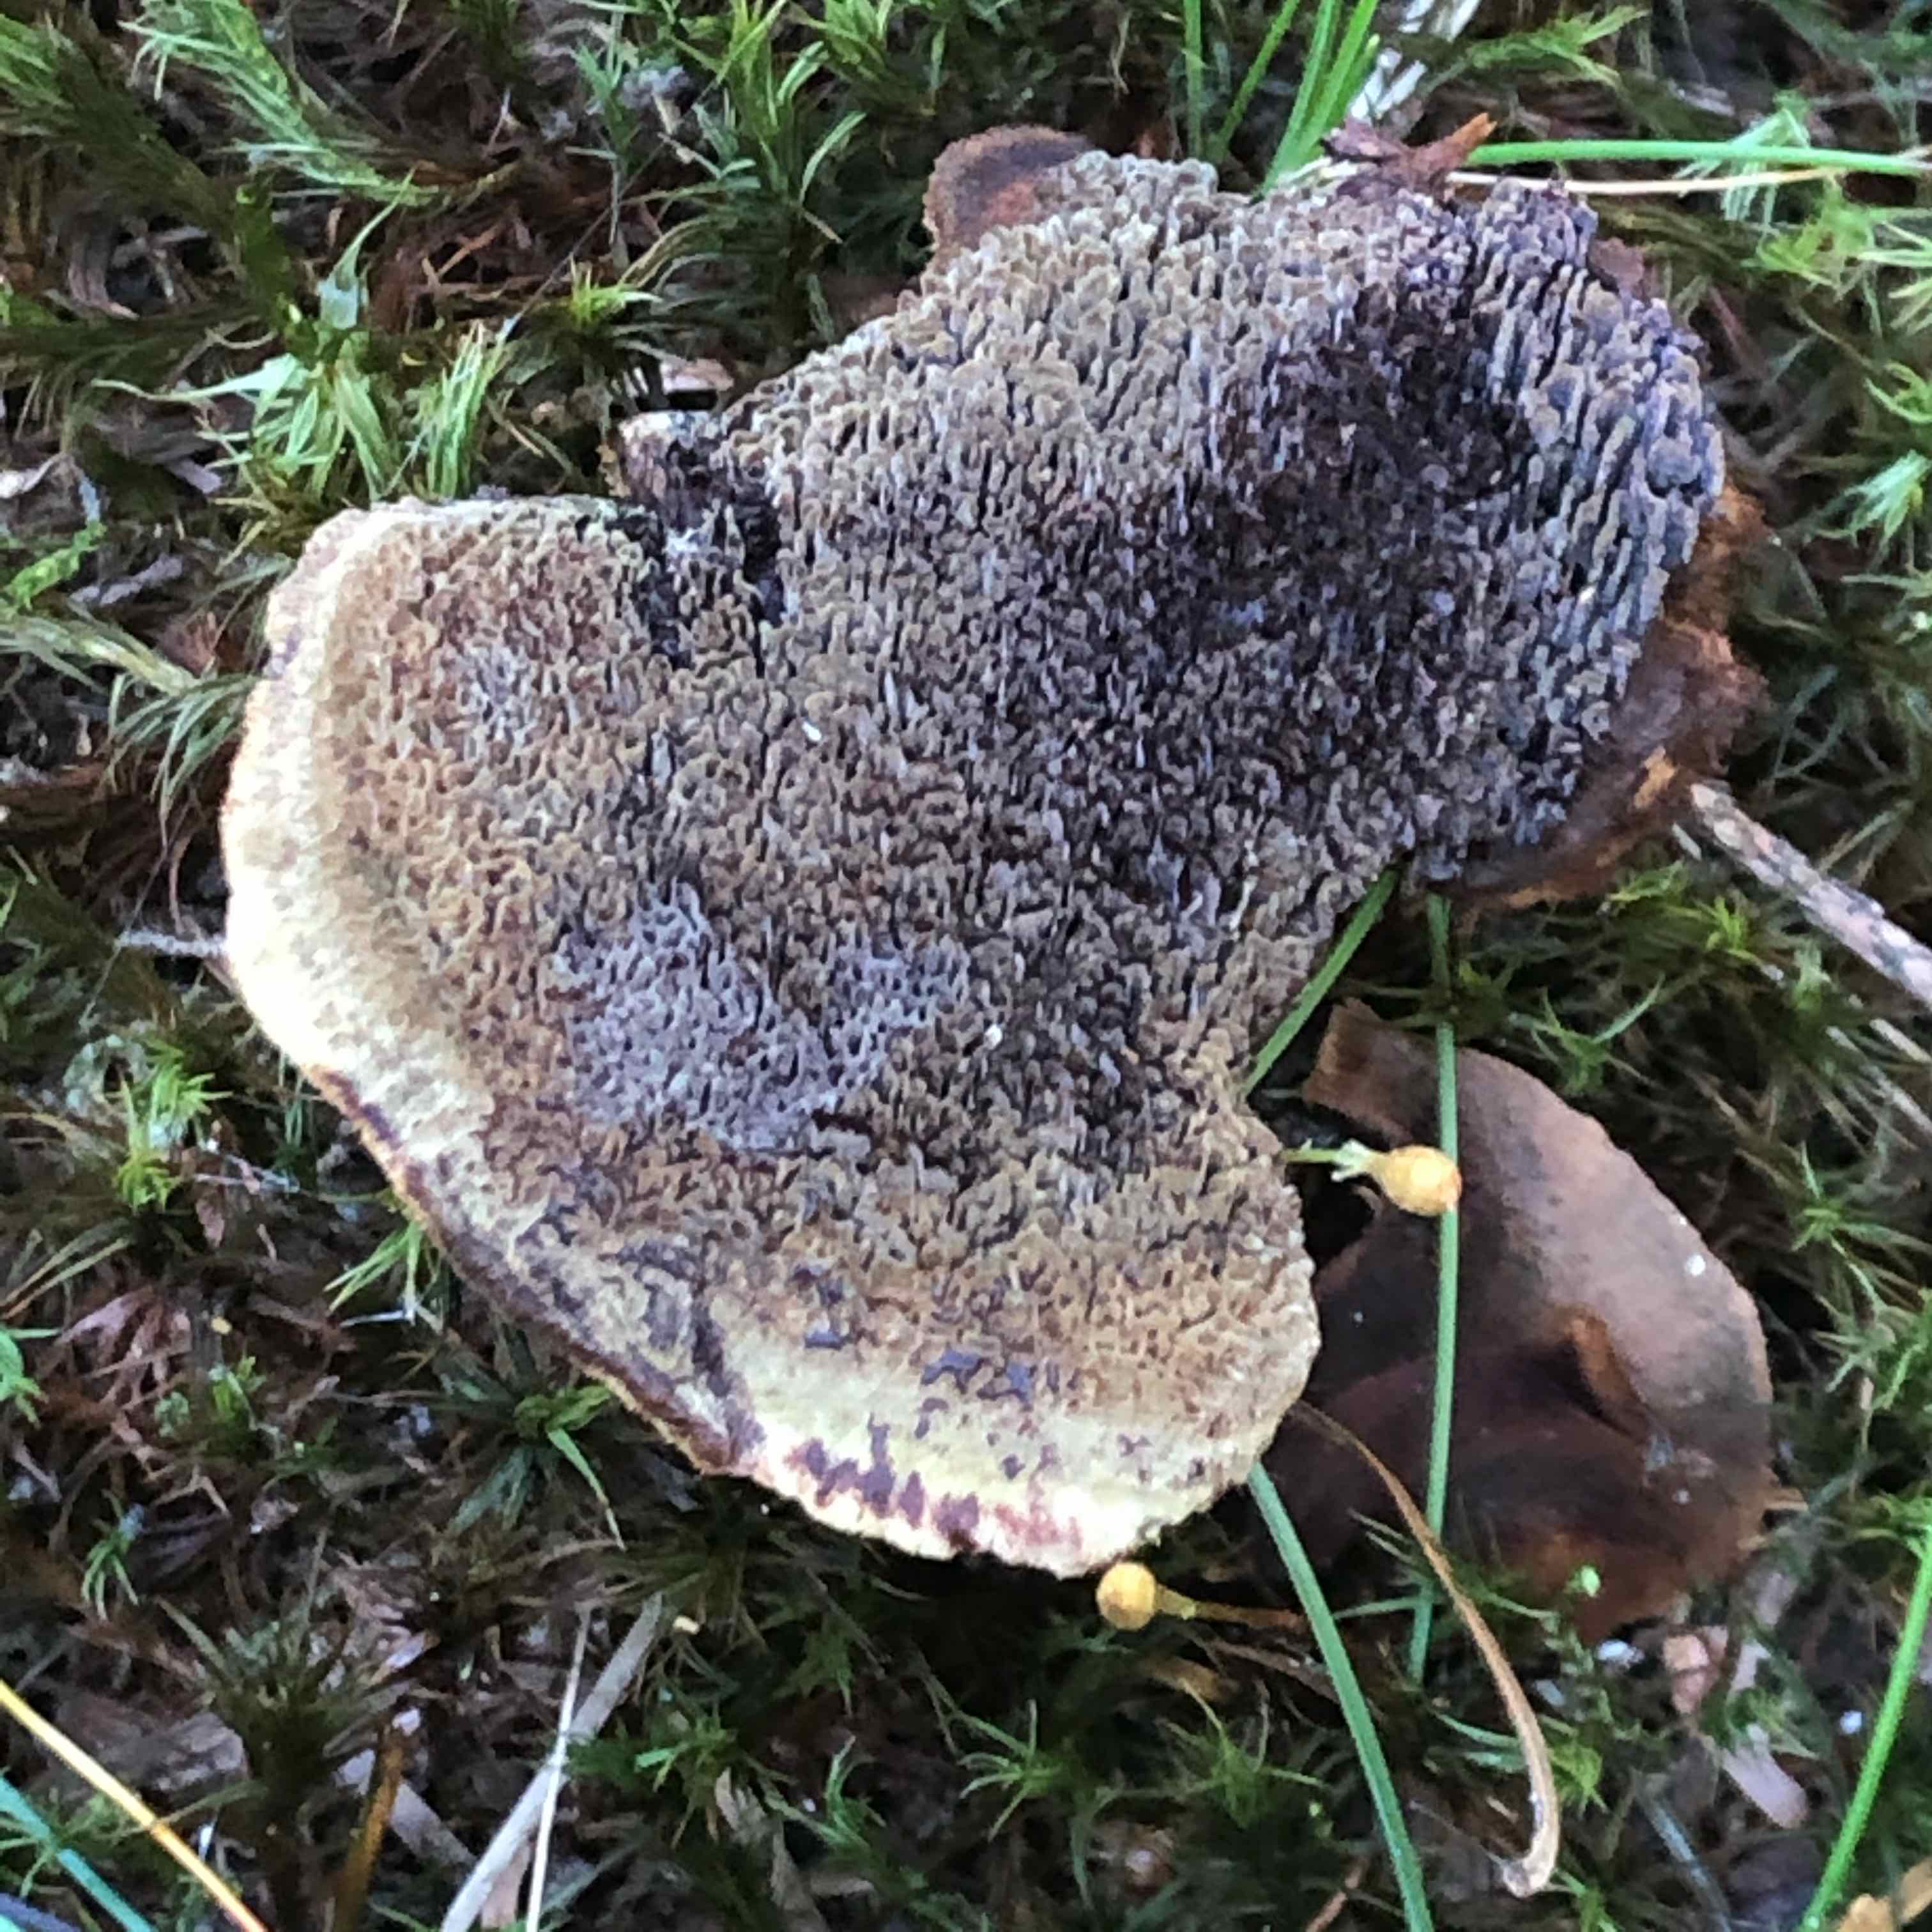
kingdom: Fungi
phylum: Basidiomycota
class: Agaricomycetes
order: Polyporales
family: Laetiporaceae
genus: Phaeolus
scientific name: Phaeolus schweinitzii
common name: brunporesvamp
